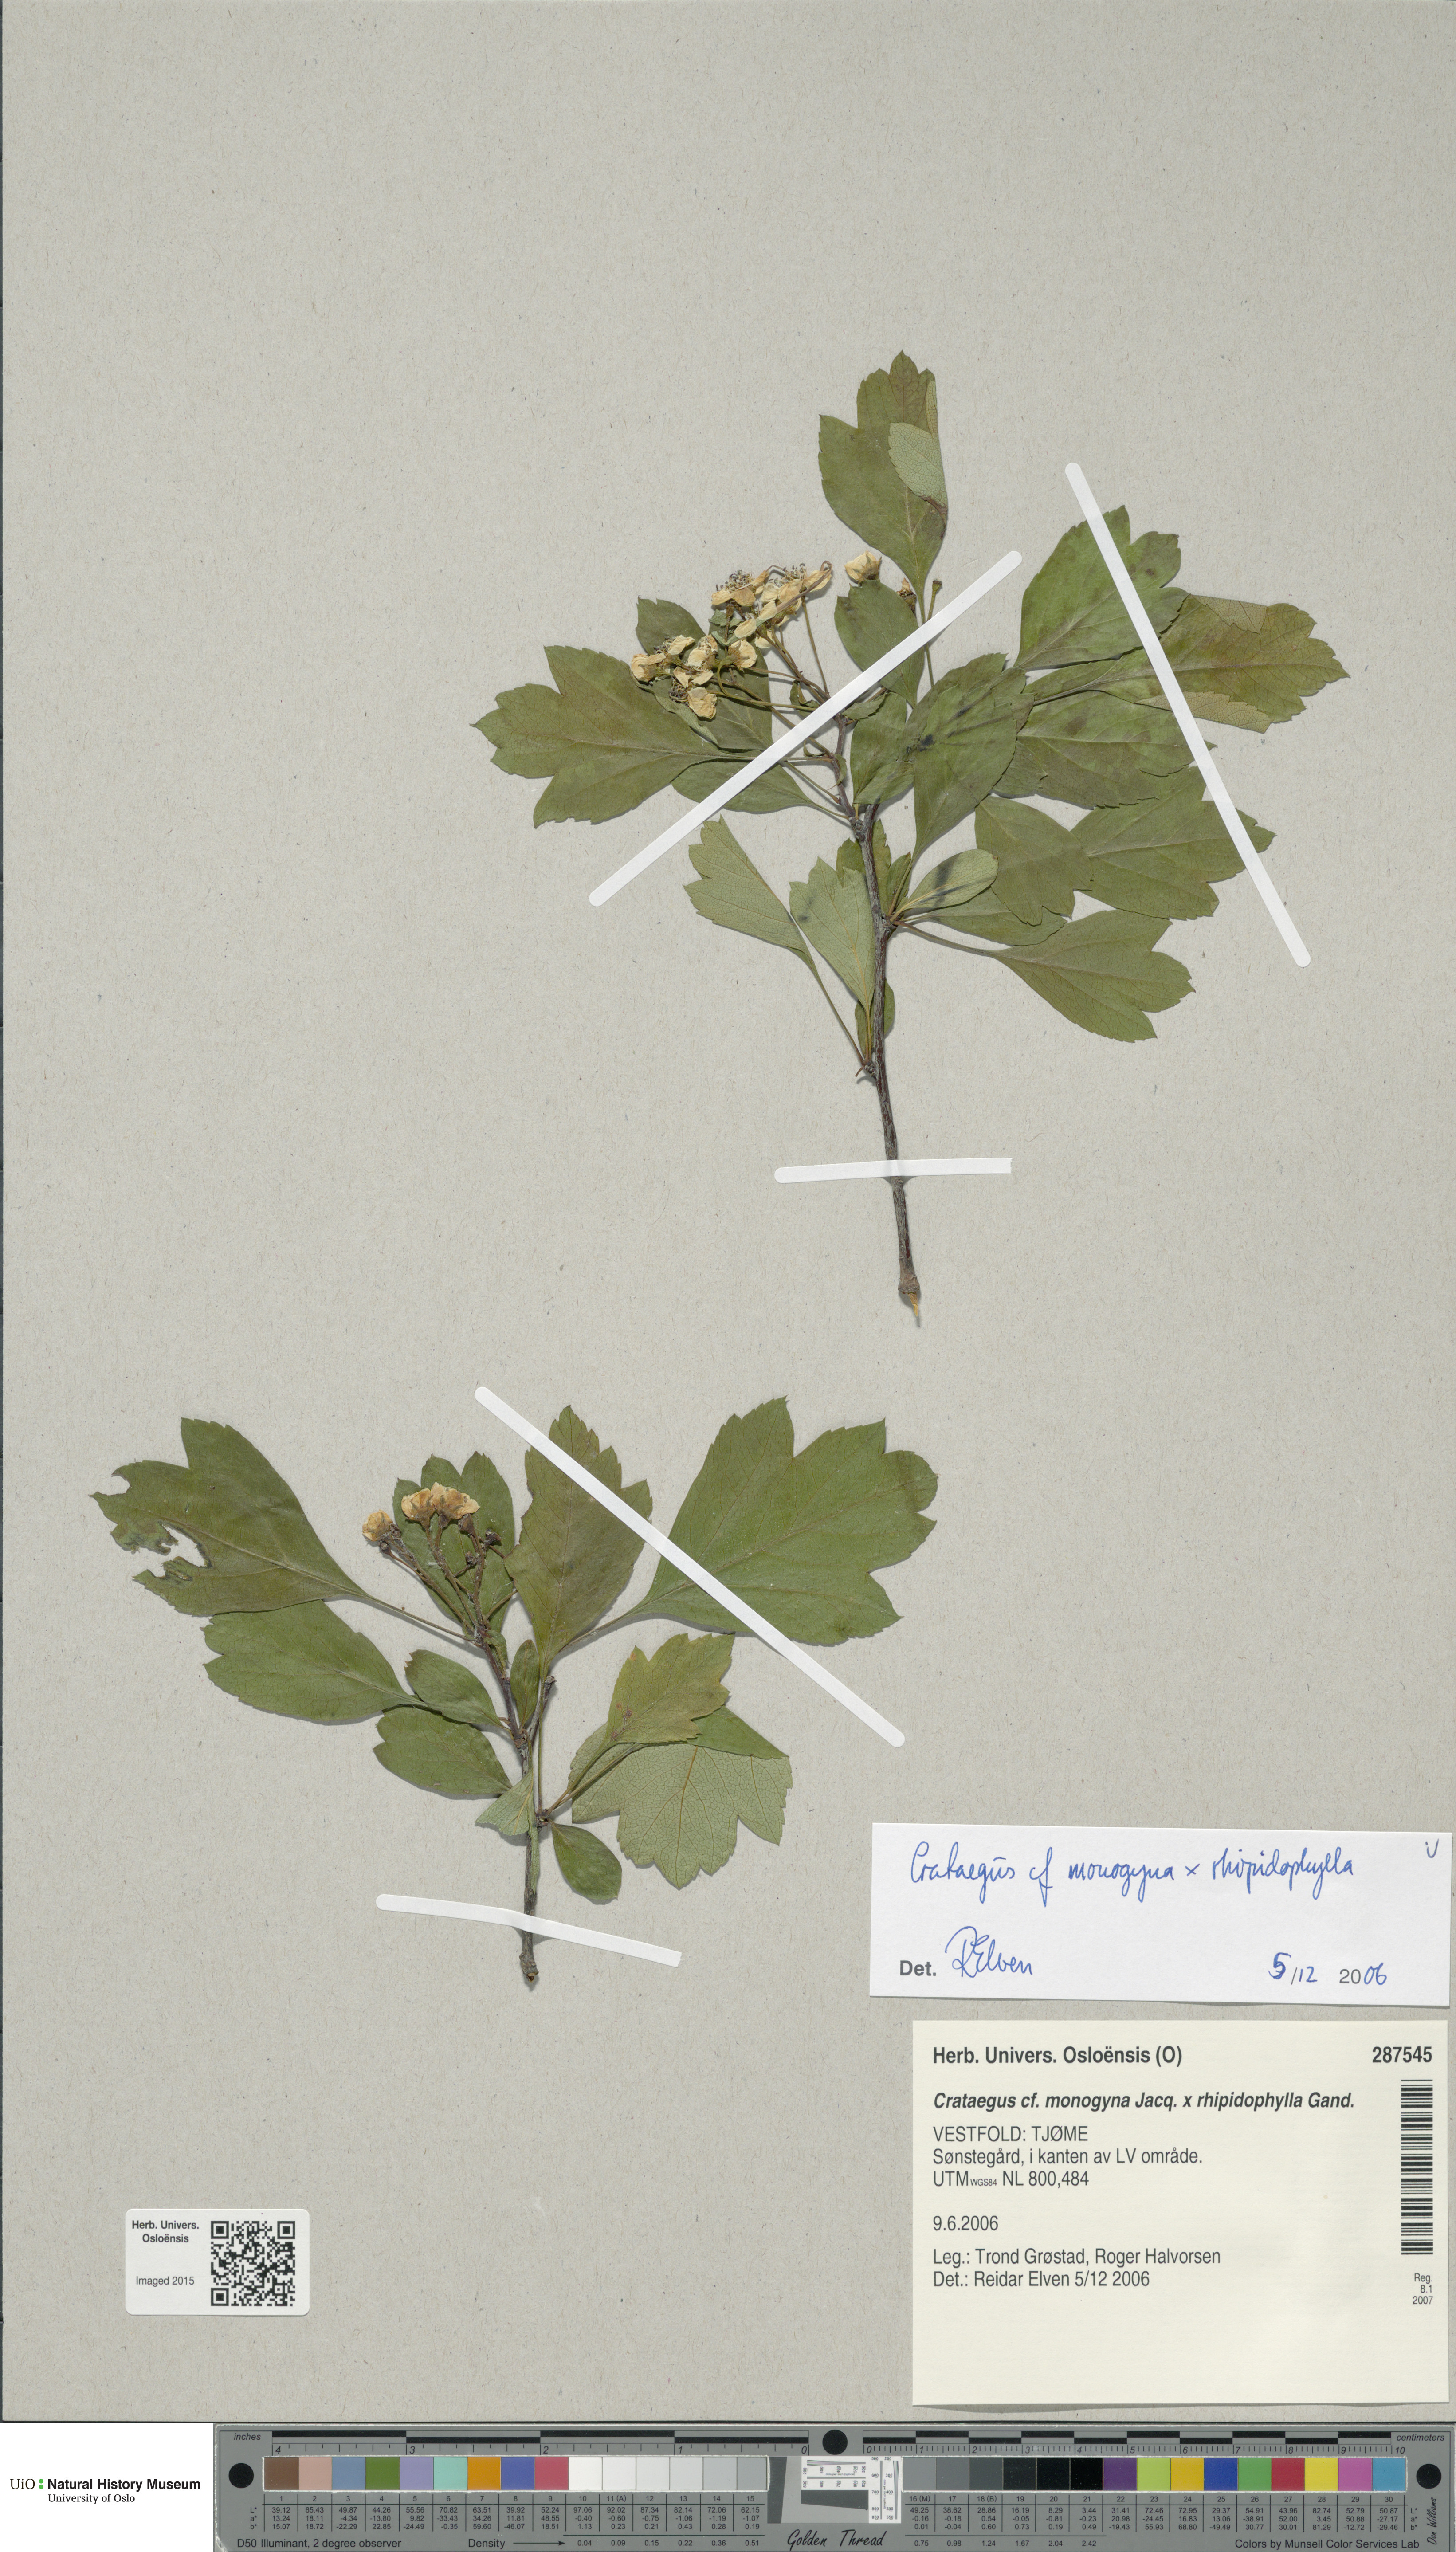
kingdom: Plantae
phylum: Tracheophyta
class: Magnoliopsida
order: Rosales
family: Rosaceae
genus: Crataegus
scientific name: Crataegus
